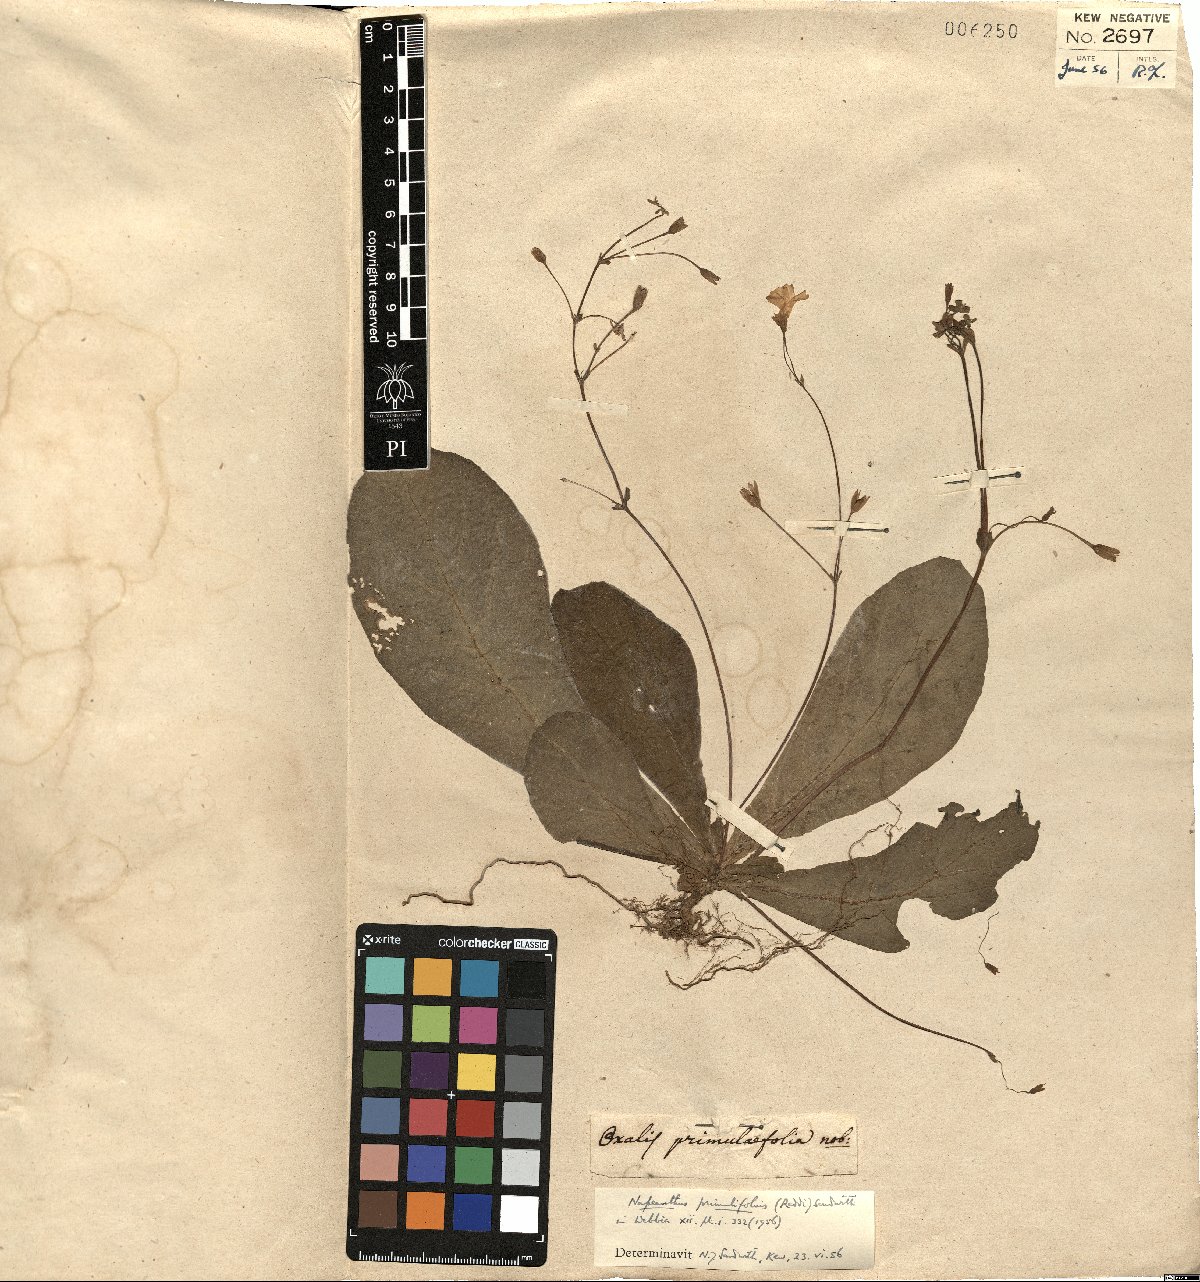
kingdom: Plantae
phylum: Tracheophyta
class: Magnoliopsida
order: Lamiales
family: Gesneriaceae
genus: Napeanthus
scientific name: Napeanthus primulifolius
